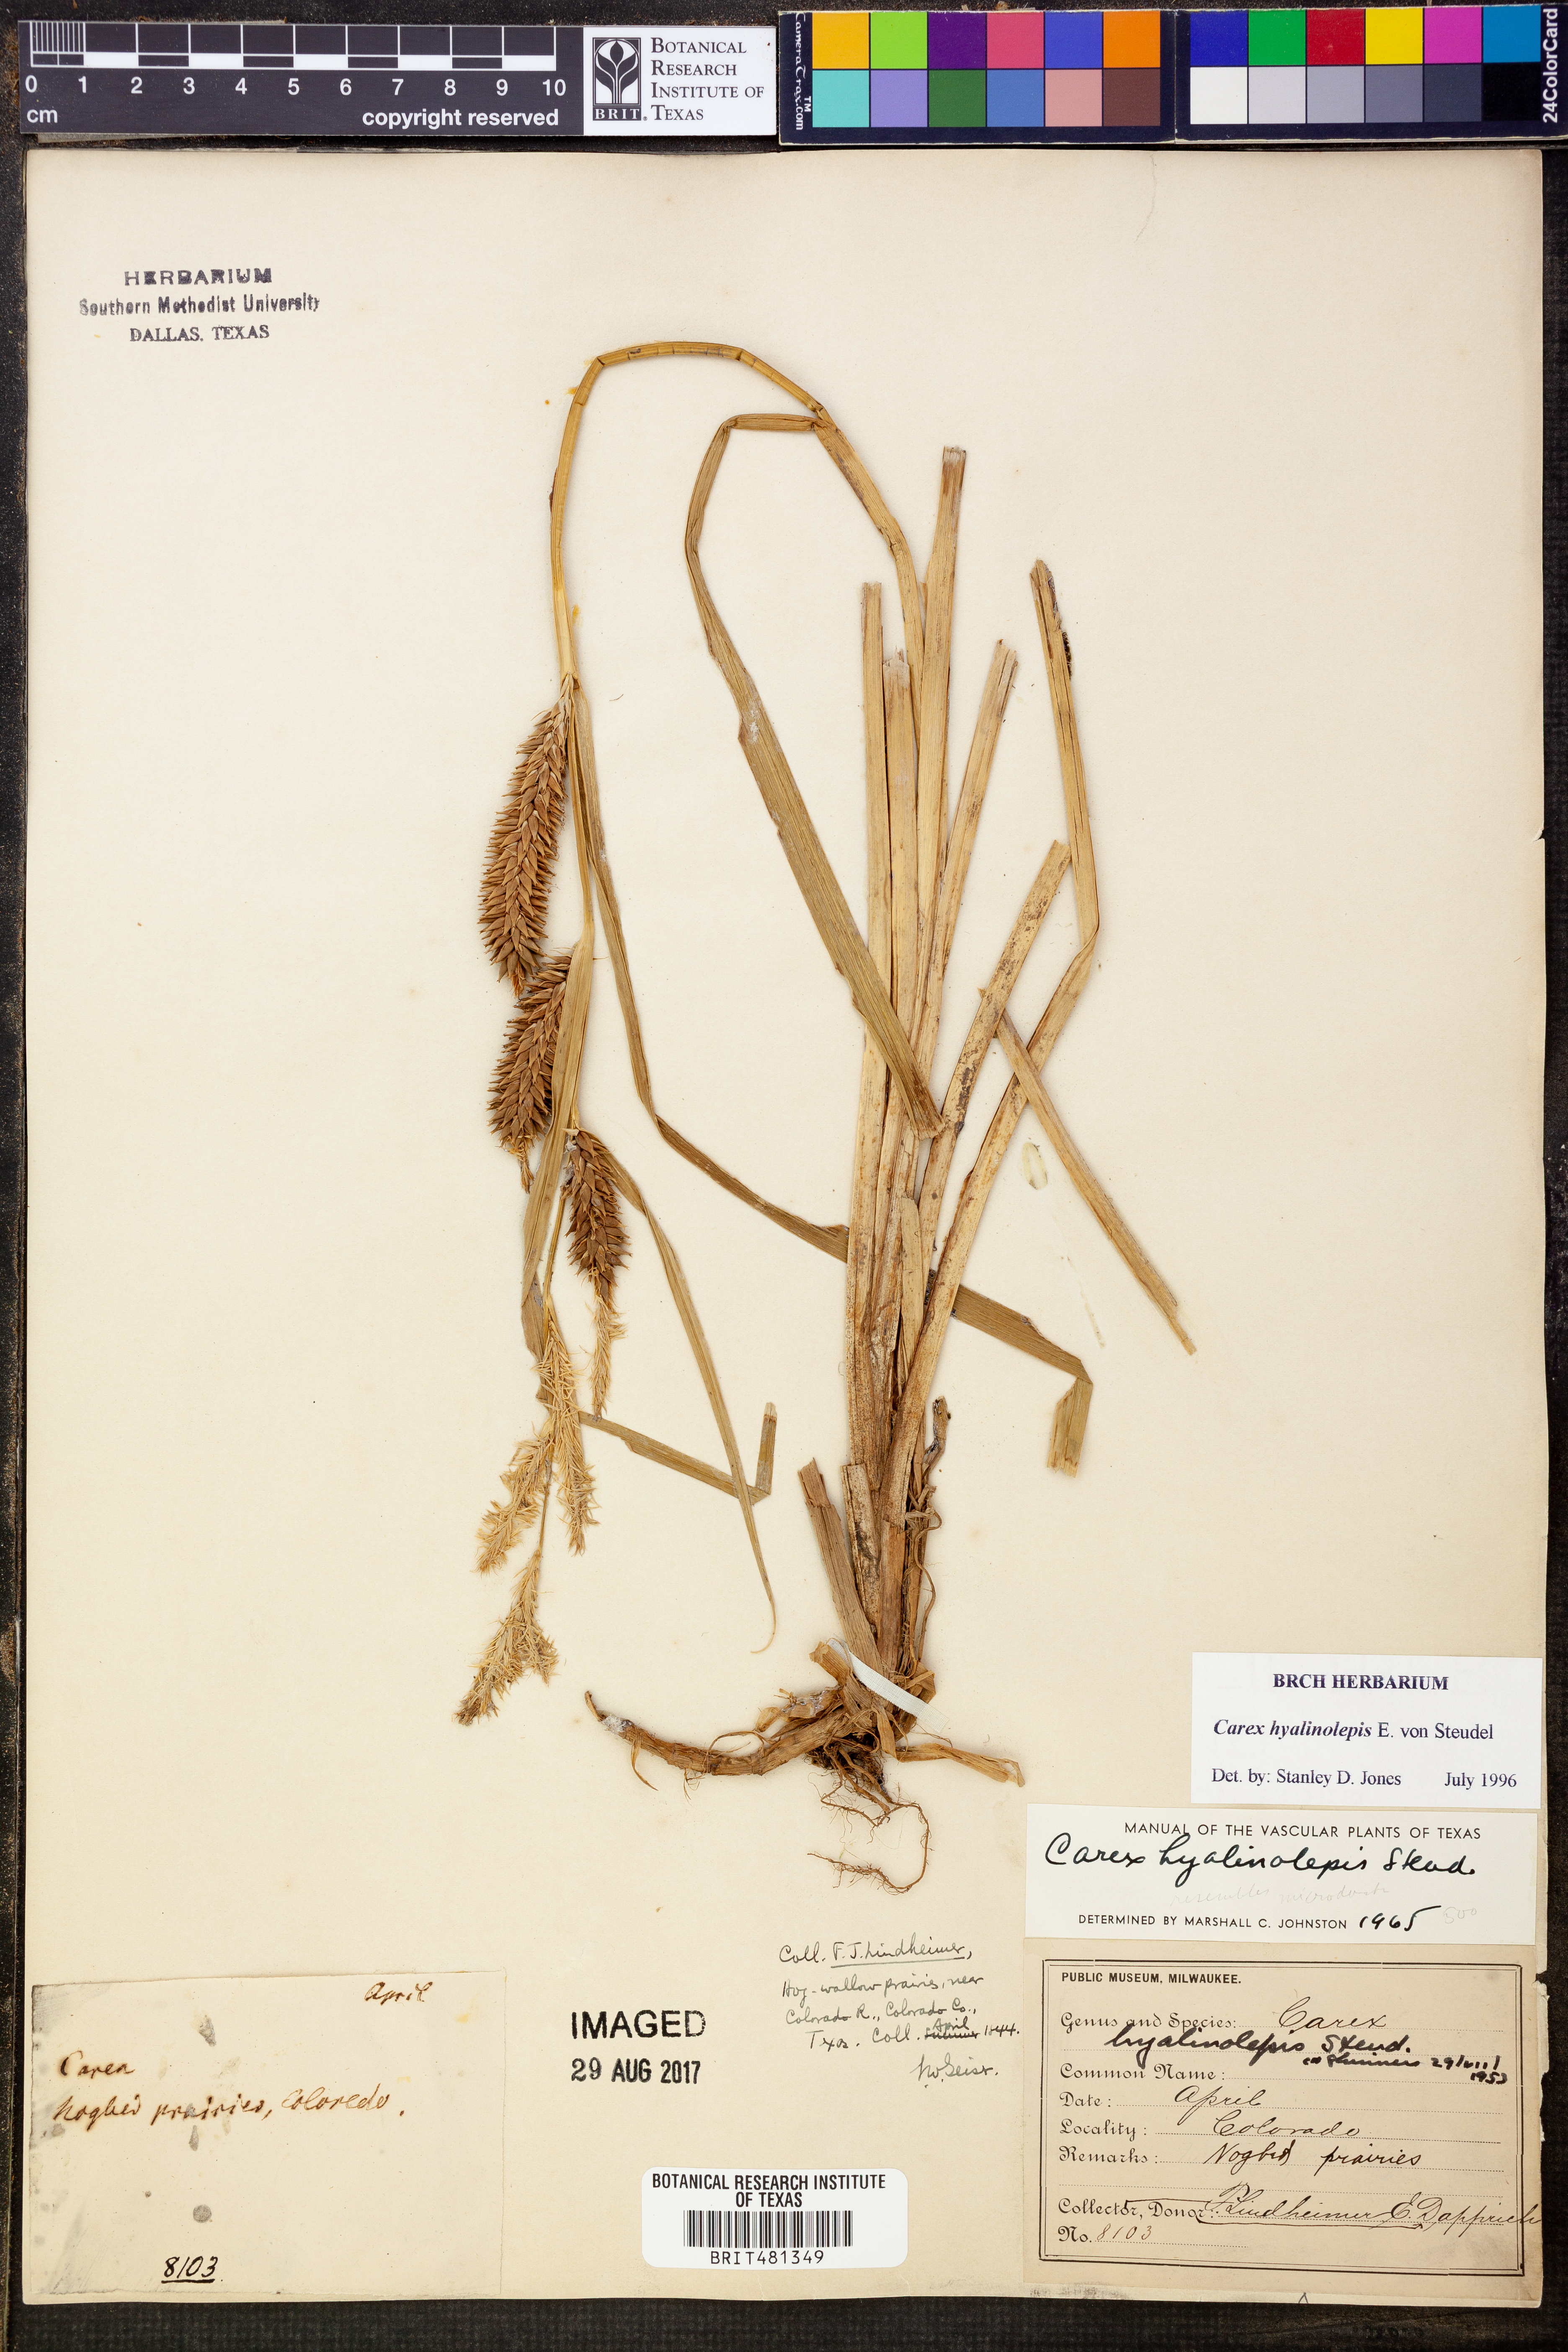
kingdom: Plantae
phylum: Tracheophyta
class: Liliopsida
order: Poales
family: Cyperaceae
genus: Carex
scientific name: Carex hyalinolepis
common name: Shoreline sedge
